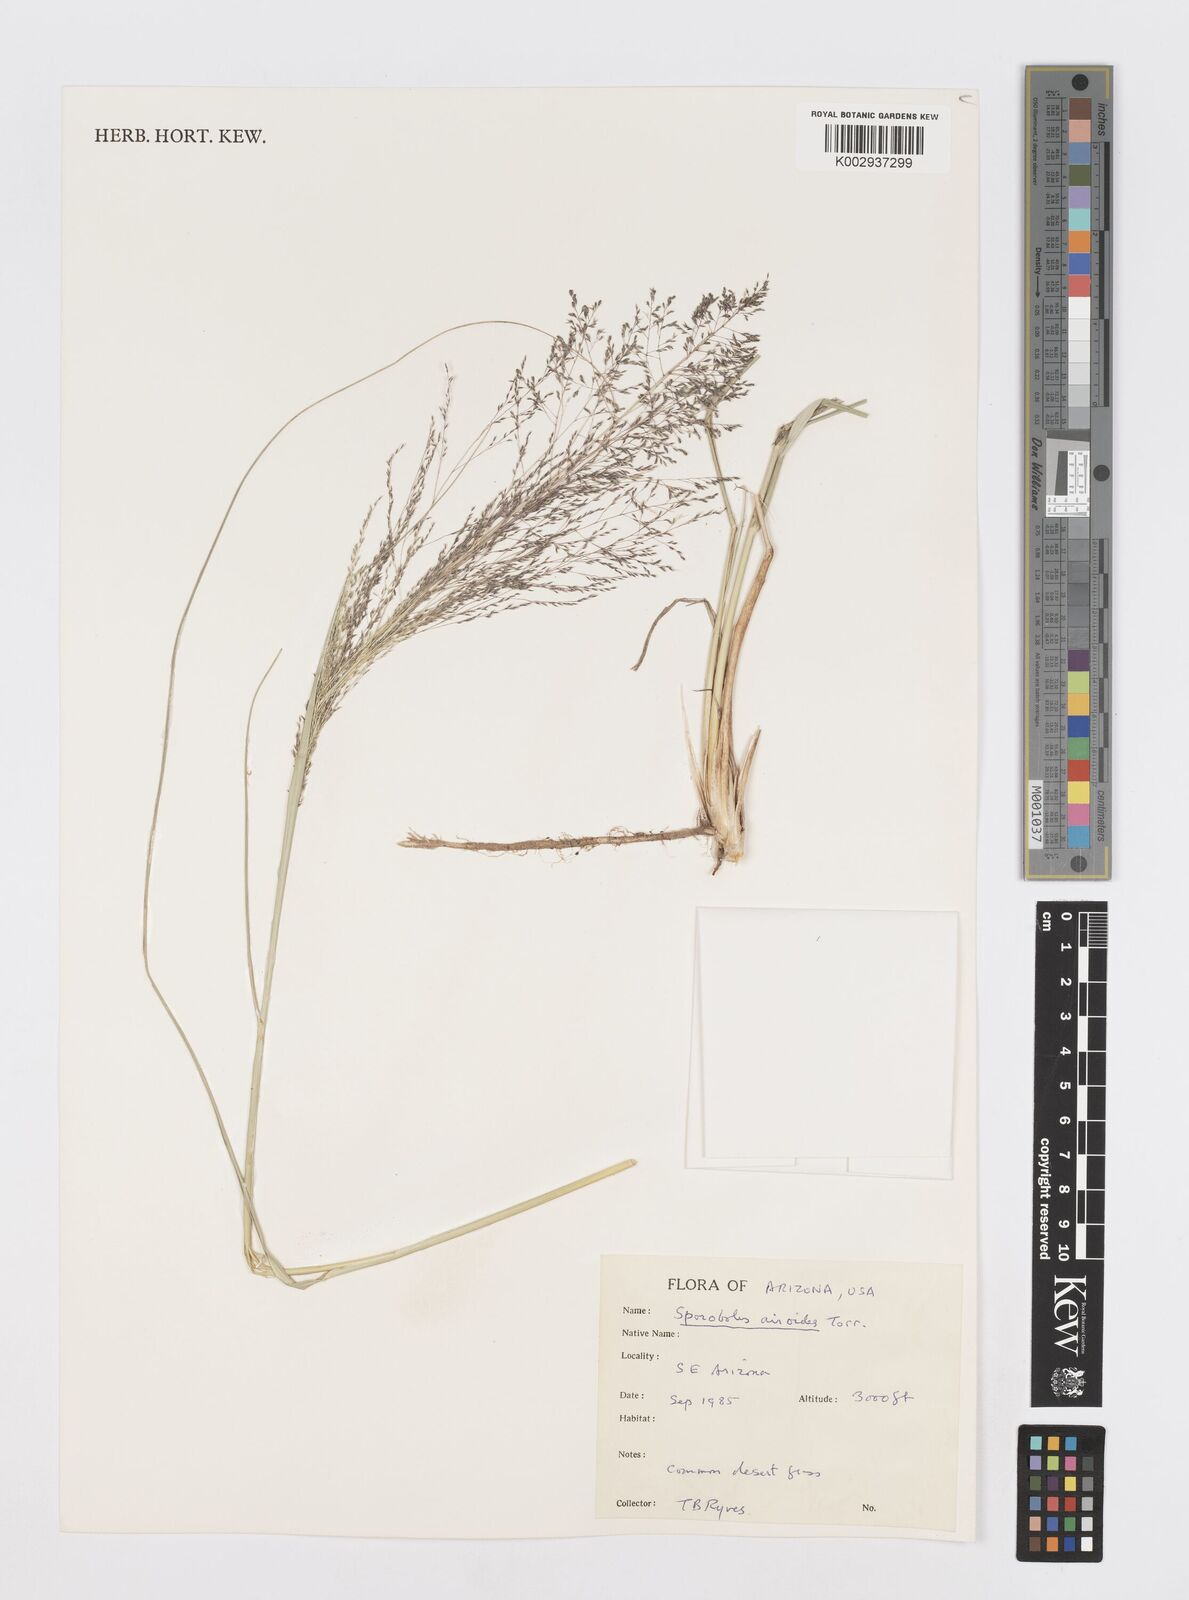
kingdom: Plantae
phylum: Tracheophyta
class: Liliopsida
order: Poales
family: Poaceae
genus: Sporobolus
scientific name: Sporobolus airoides
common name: Alkali sacaton
